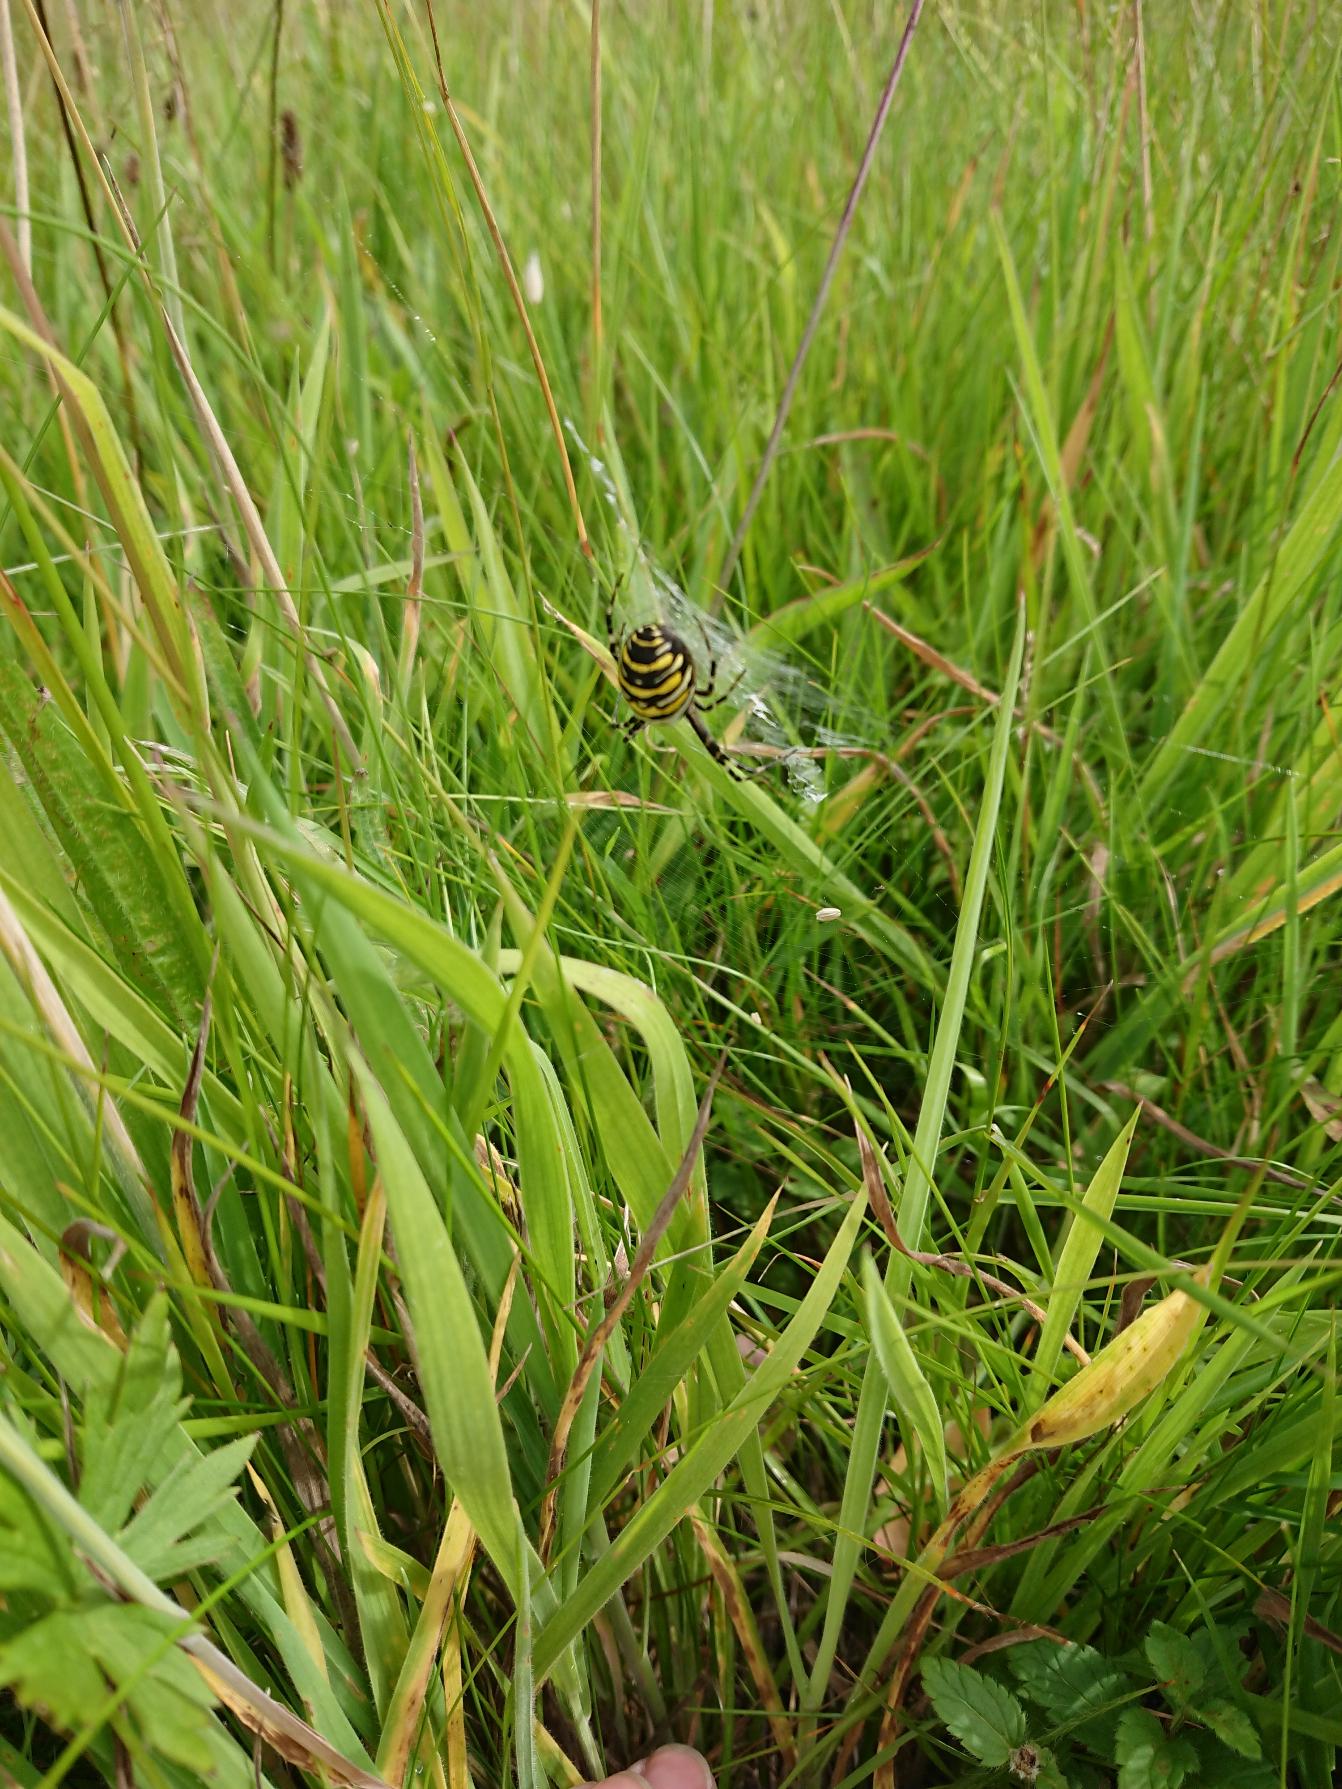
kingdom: Animalia
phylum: Arthropoda
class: Arachnida
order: Araneae
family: Araneidae
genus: Argiope
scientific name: Argiope bruennichi
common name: Hvepseedderkop
